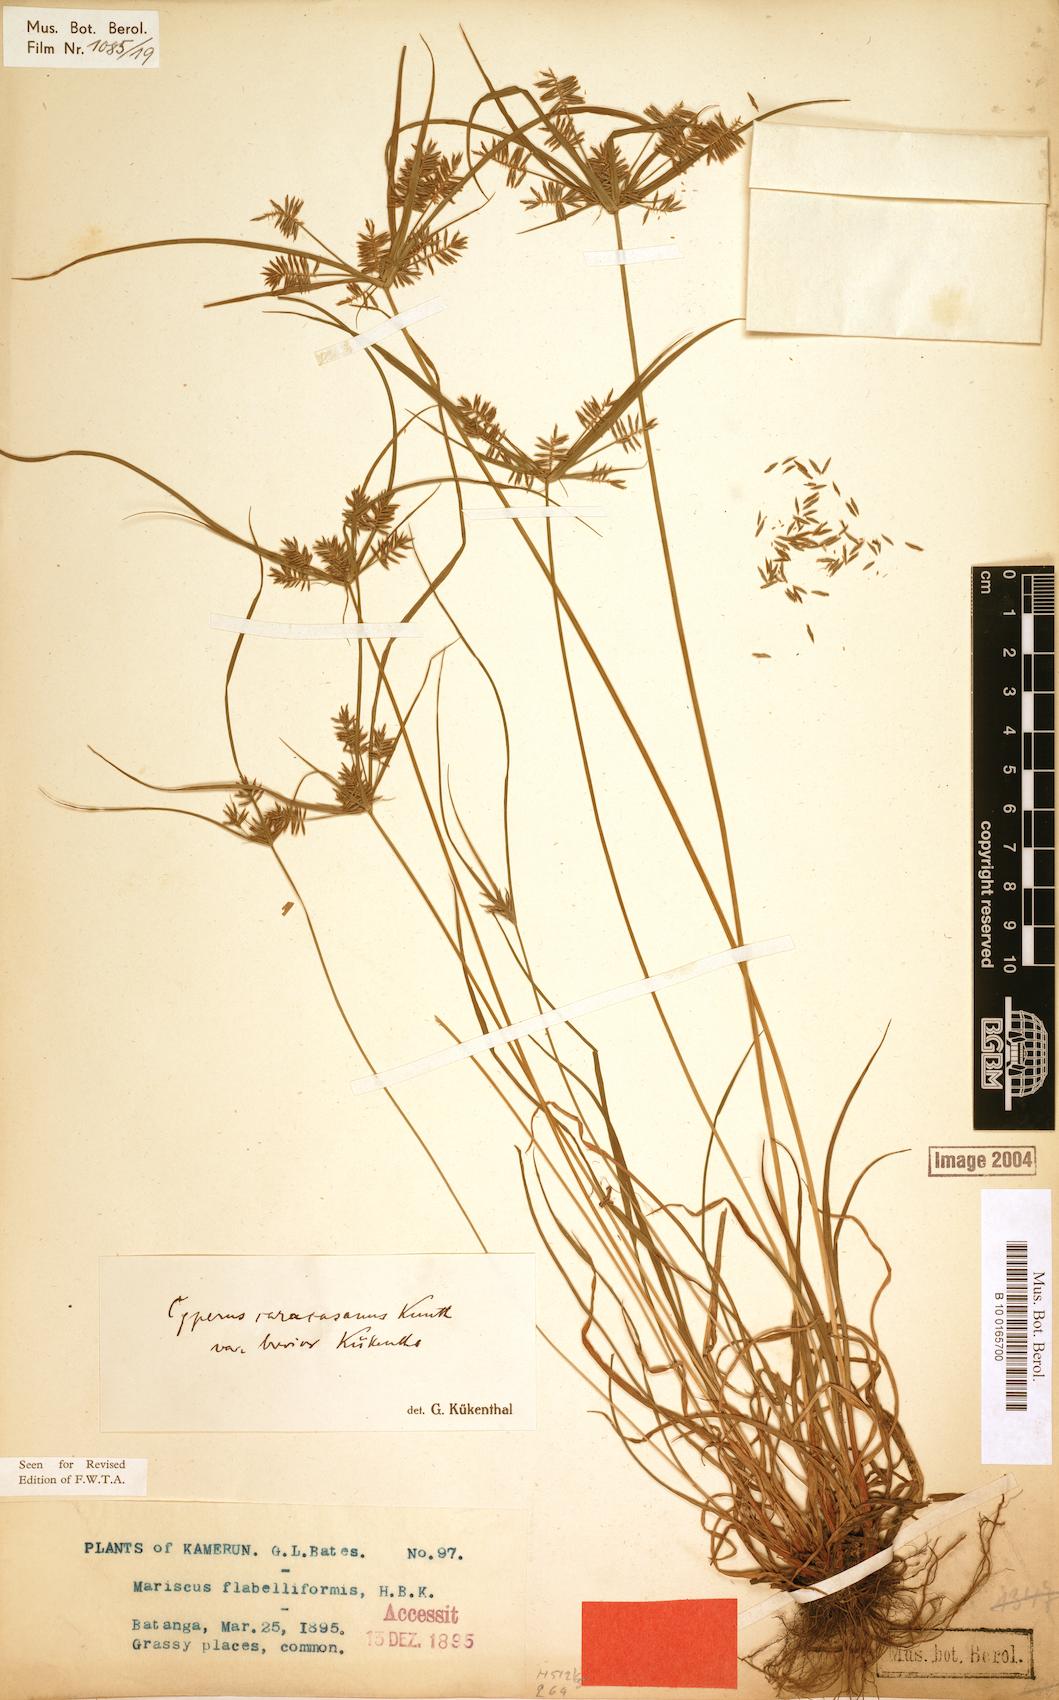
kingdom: Plantae
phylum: Tracheophyta
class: Liliopsida
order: Poales
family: Cyperaceae
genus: Cyperus
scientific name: Cyperus tenuis
